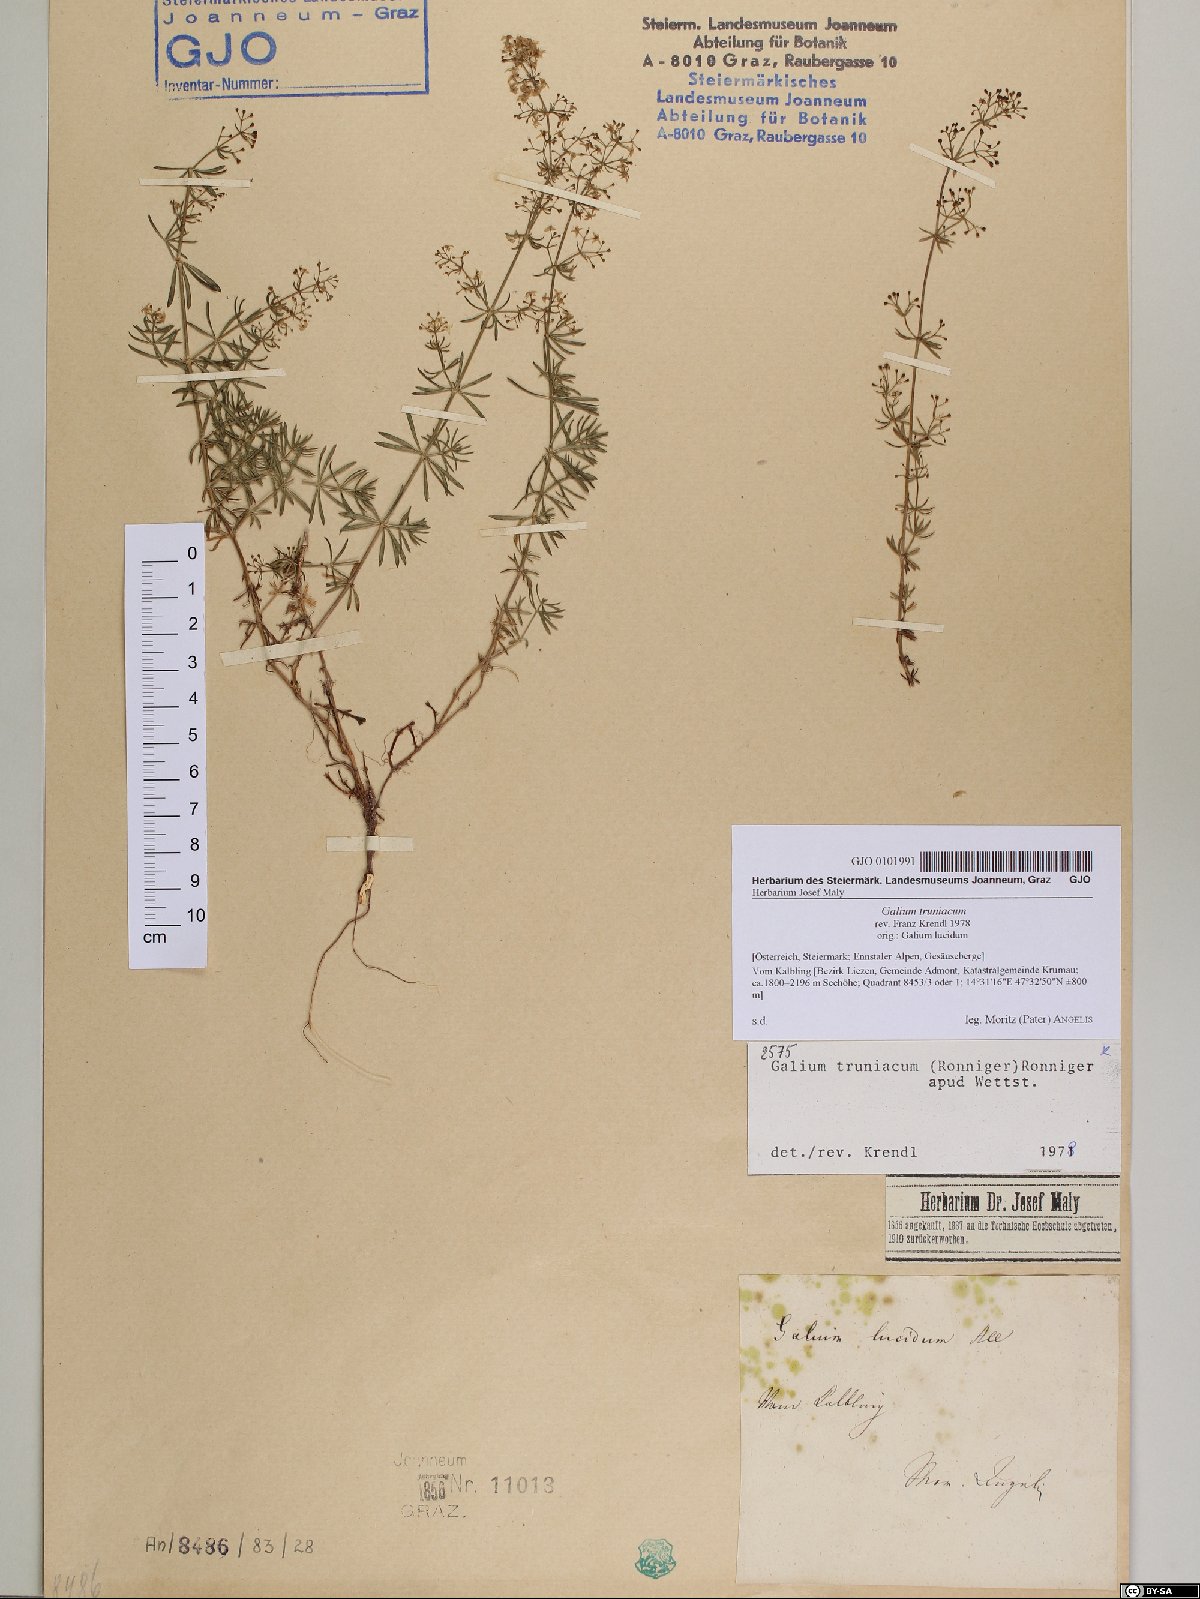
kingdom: Plantae
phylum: Tracheophyta
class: Magnoliopsida
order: Gentianales
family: Rubiaceae
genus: Galium
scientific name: Galium truniacum
